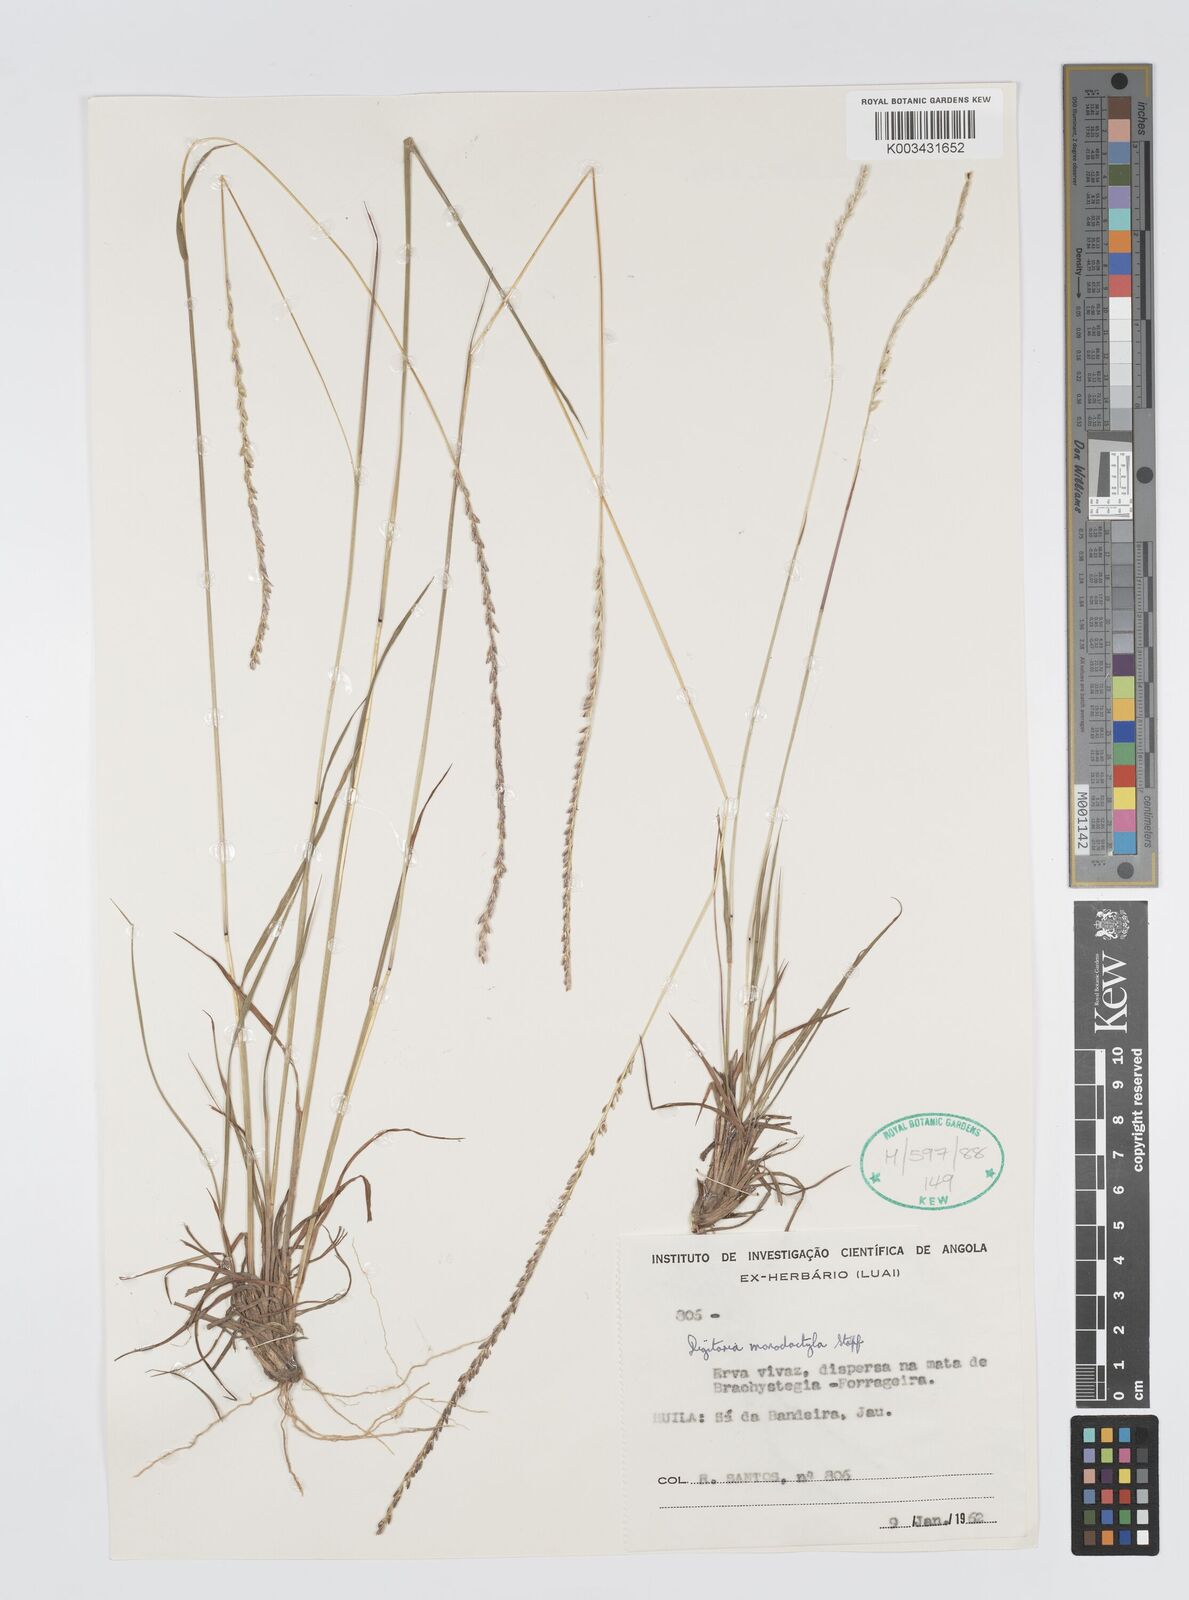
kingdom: Plantae
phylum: Tracheophyta
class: Liliopsida
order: Poales
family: Poaceae
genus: Digitaria
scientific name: Digitaria monodactyla
